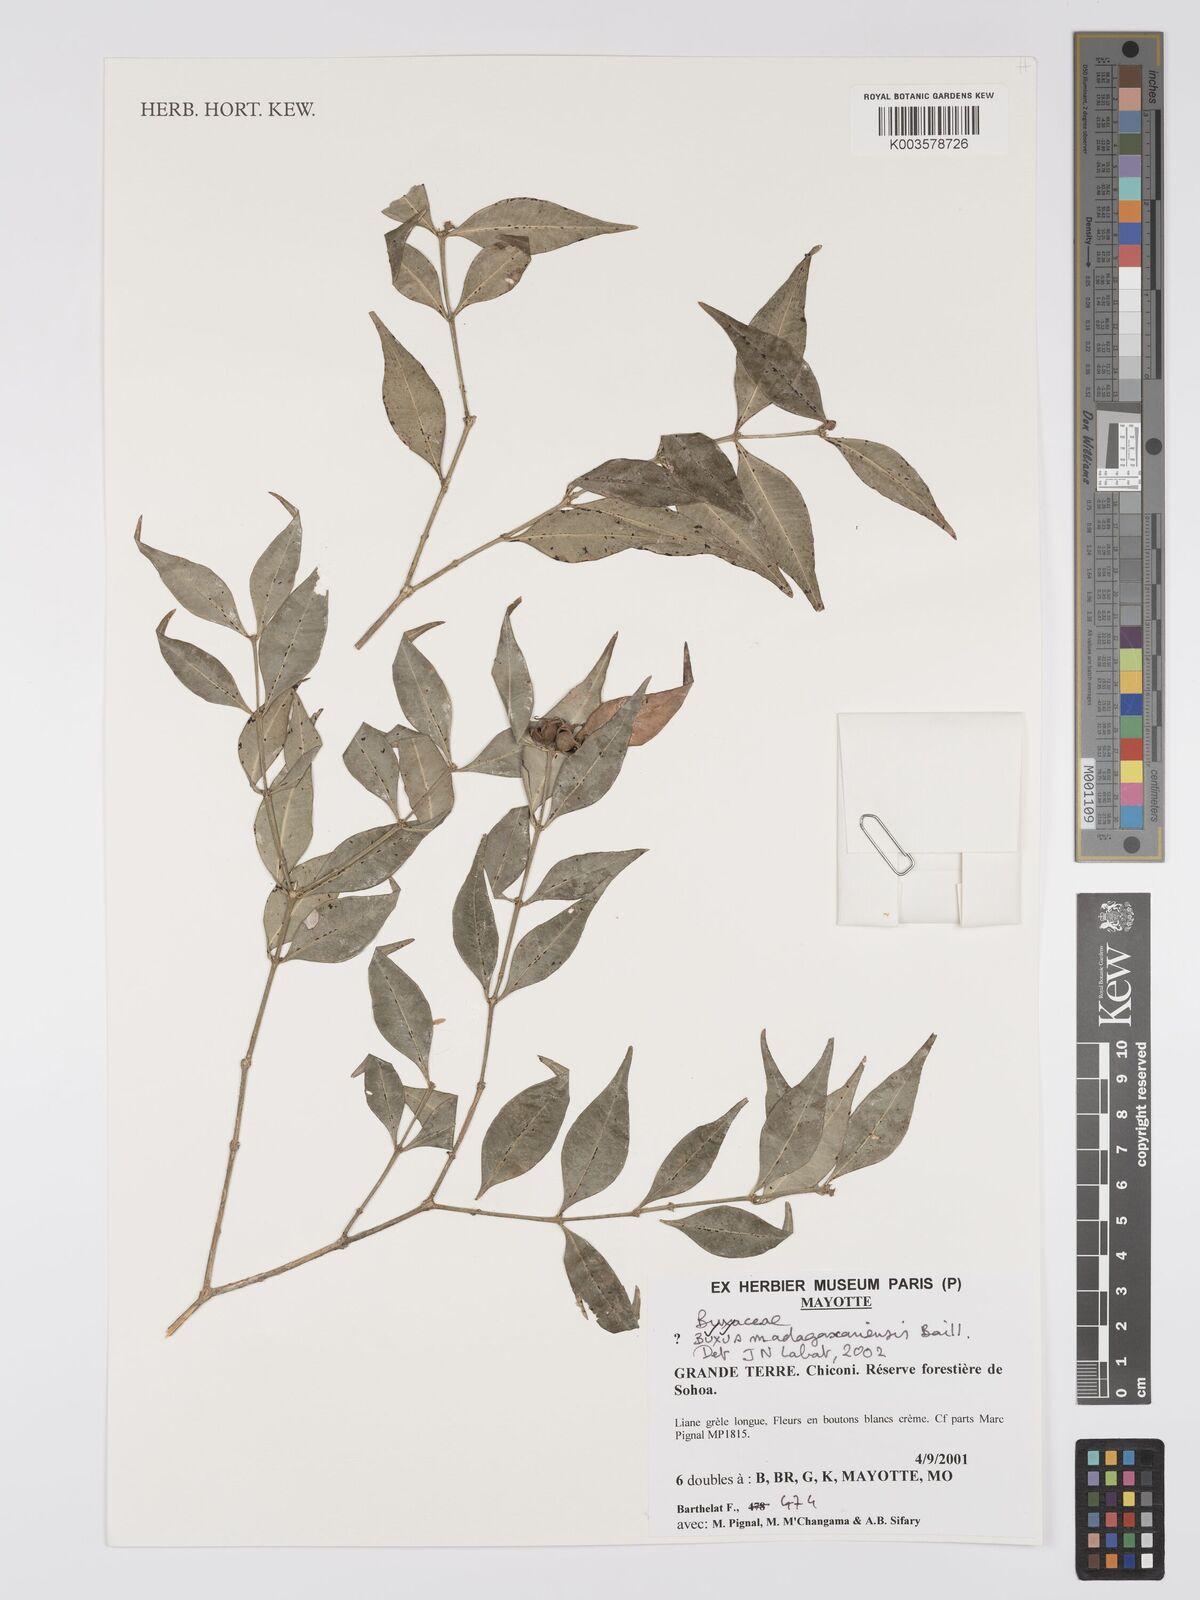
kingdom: Plantae
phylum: Tracheophyta
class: Magnoliopsida
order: Buxales
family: Buxaceae
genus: Buxus
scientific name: Buxus madagascarica
